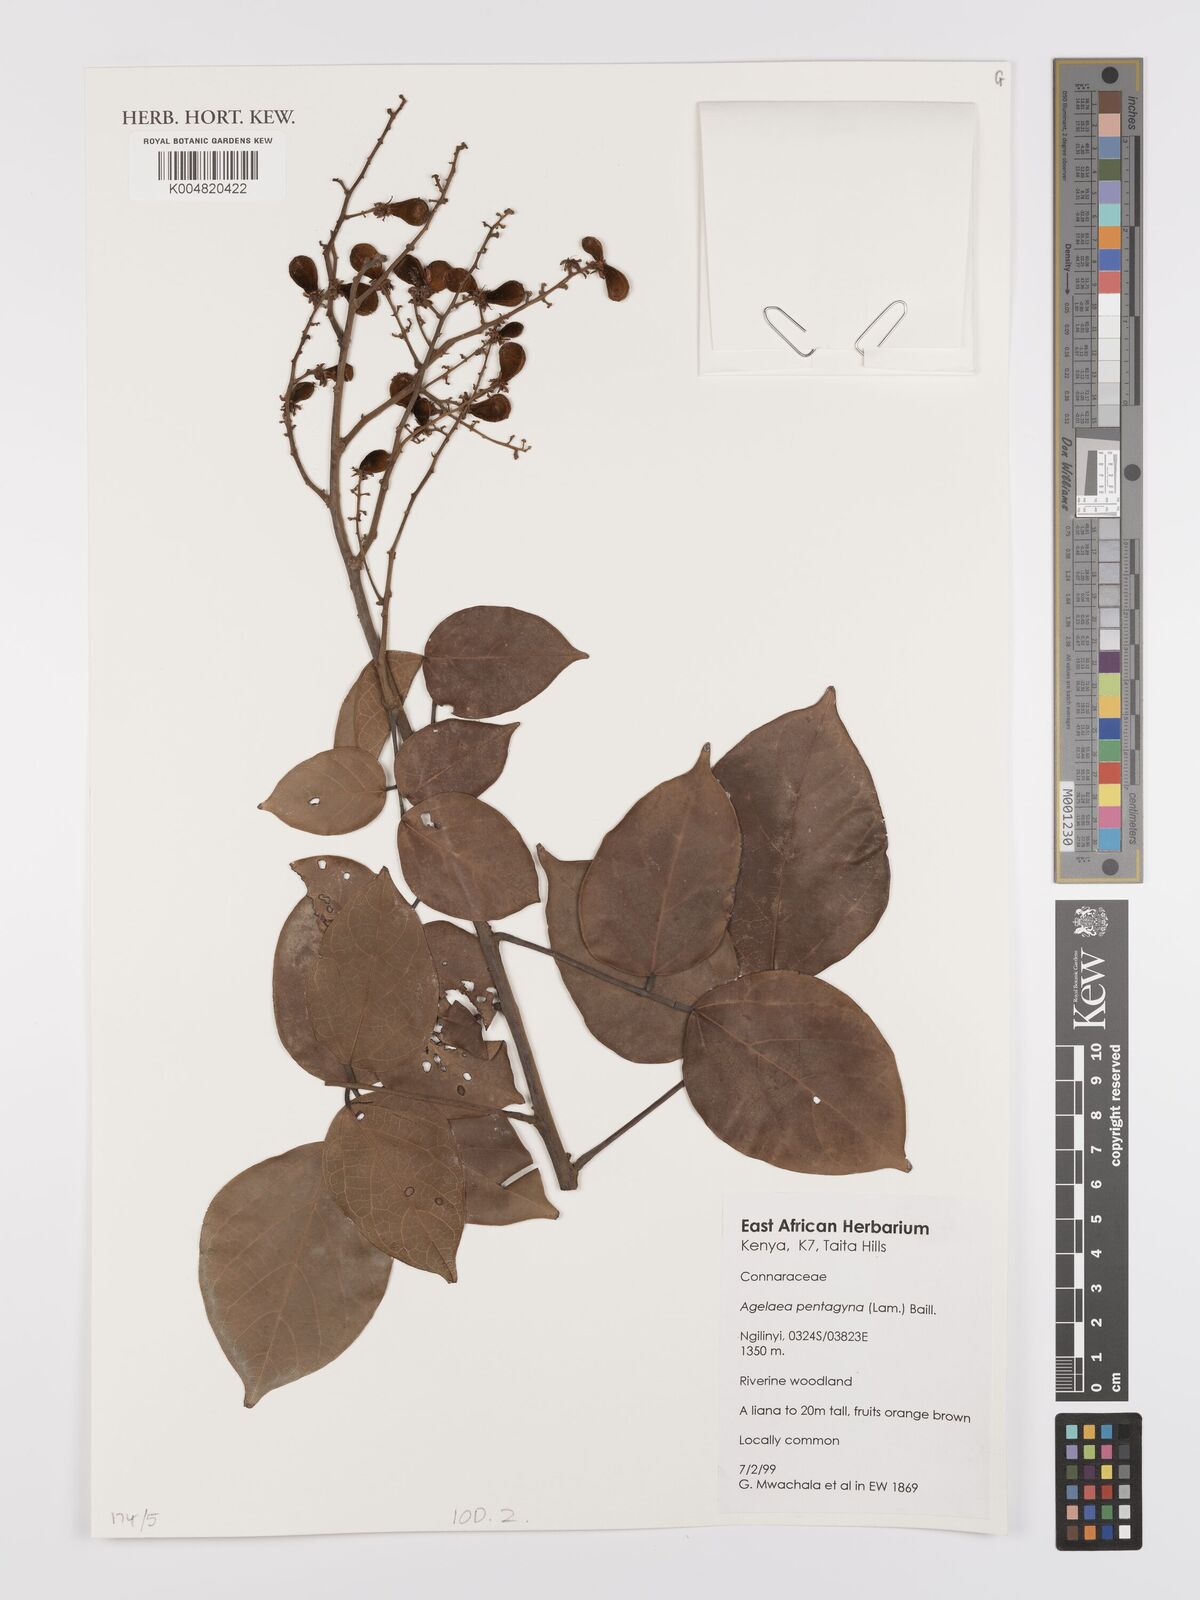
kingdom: Plantae
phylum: Tracheophyta
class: Magnoliopsida
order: Oxalidales
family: Connaraceae
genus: Agelaea
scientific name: Agelaea pentagyna
